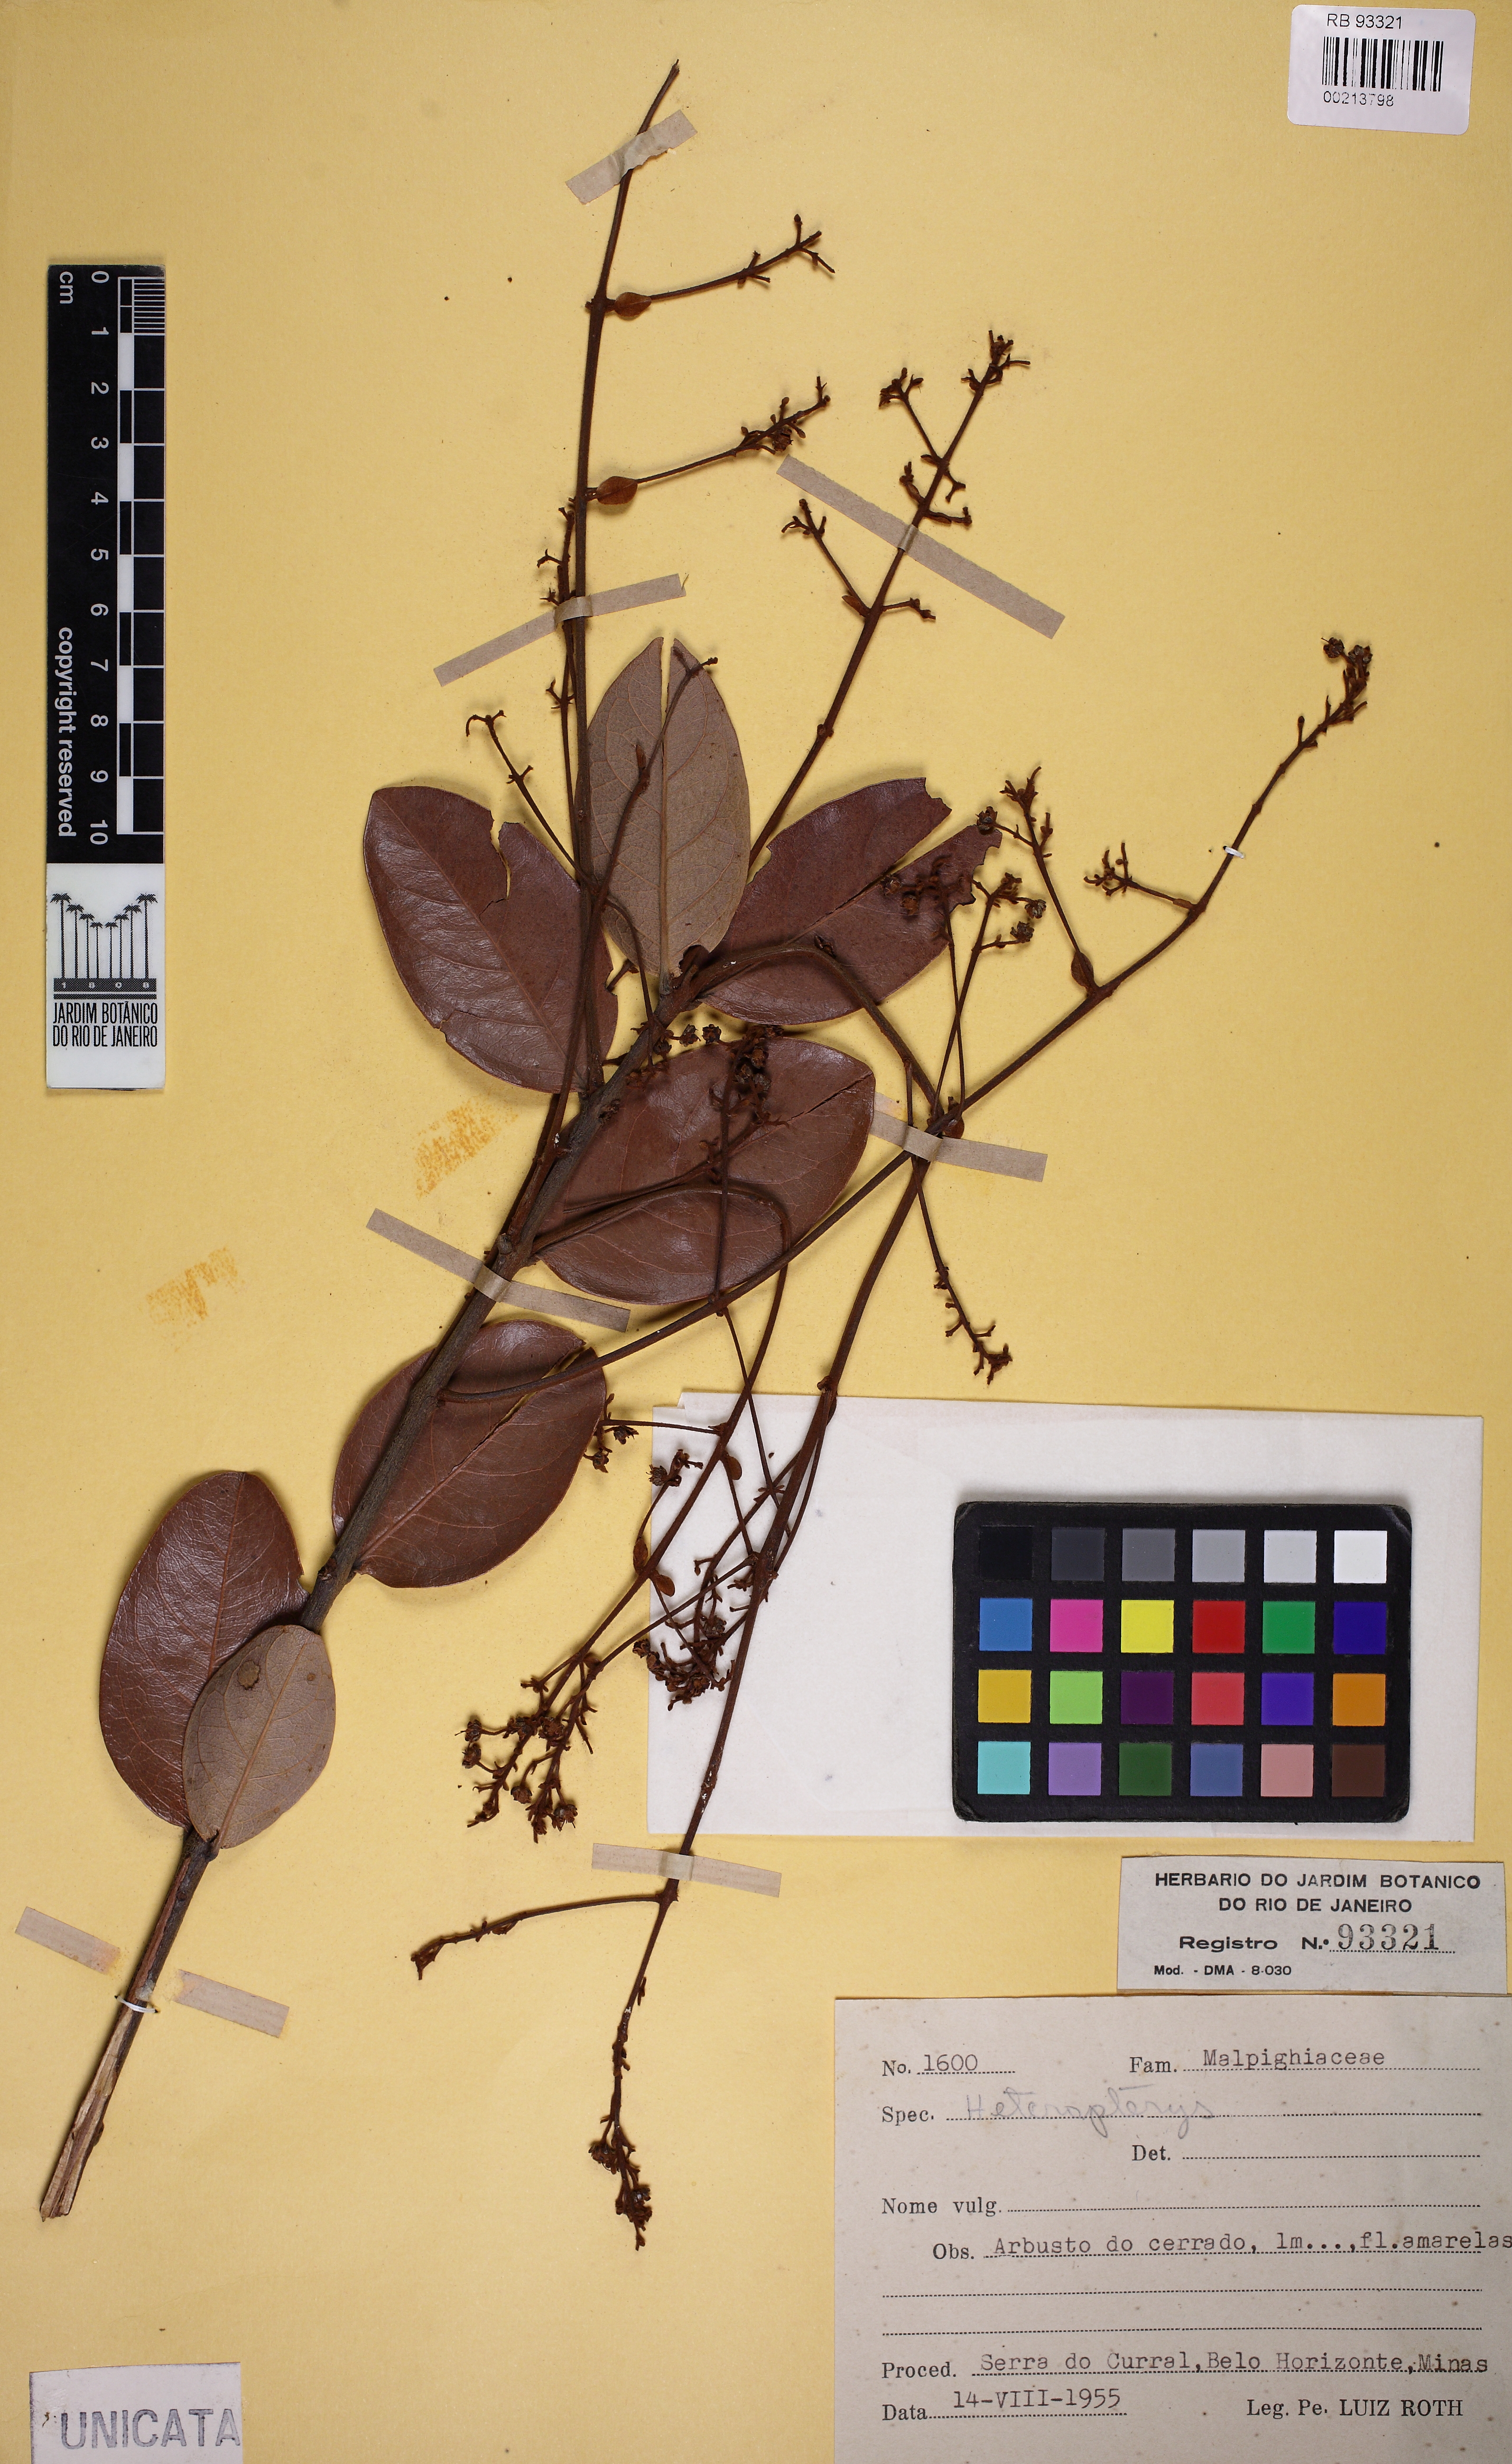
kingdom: Plantae
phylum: Tracheophyta
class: Magnoliopsida
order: Malpighiales
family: Malpighiaceae
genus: Heteropterys
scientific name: Heteropterys
